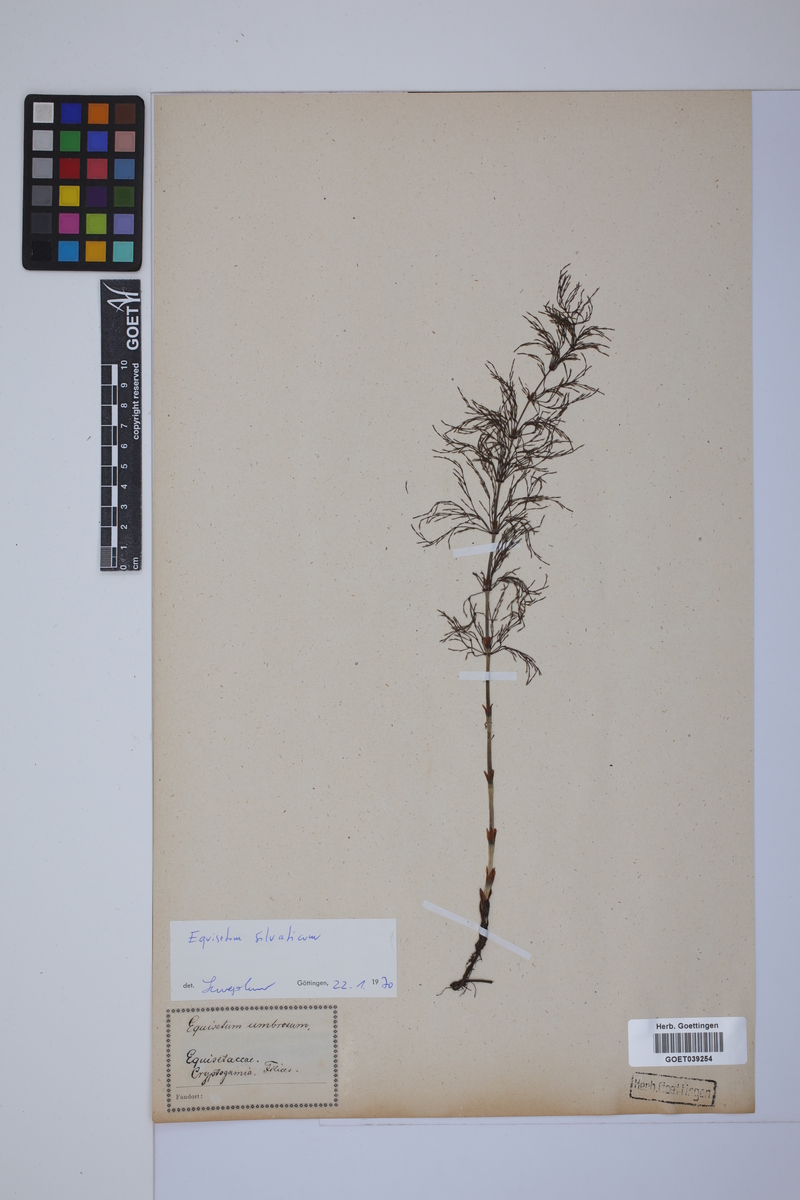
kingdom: Plantae
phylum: Tracheophyta
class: Polypodiopsida
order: Equisetales
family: Equisetaceae
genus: Equisetum
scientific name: Equisetum sylvaticum
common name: Wood horsetail
